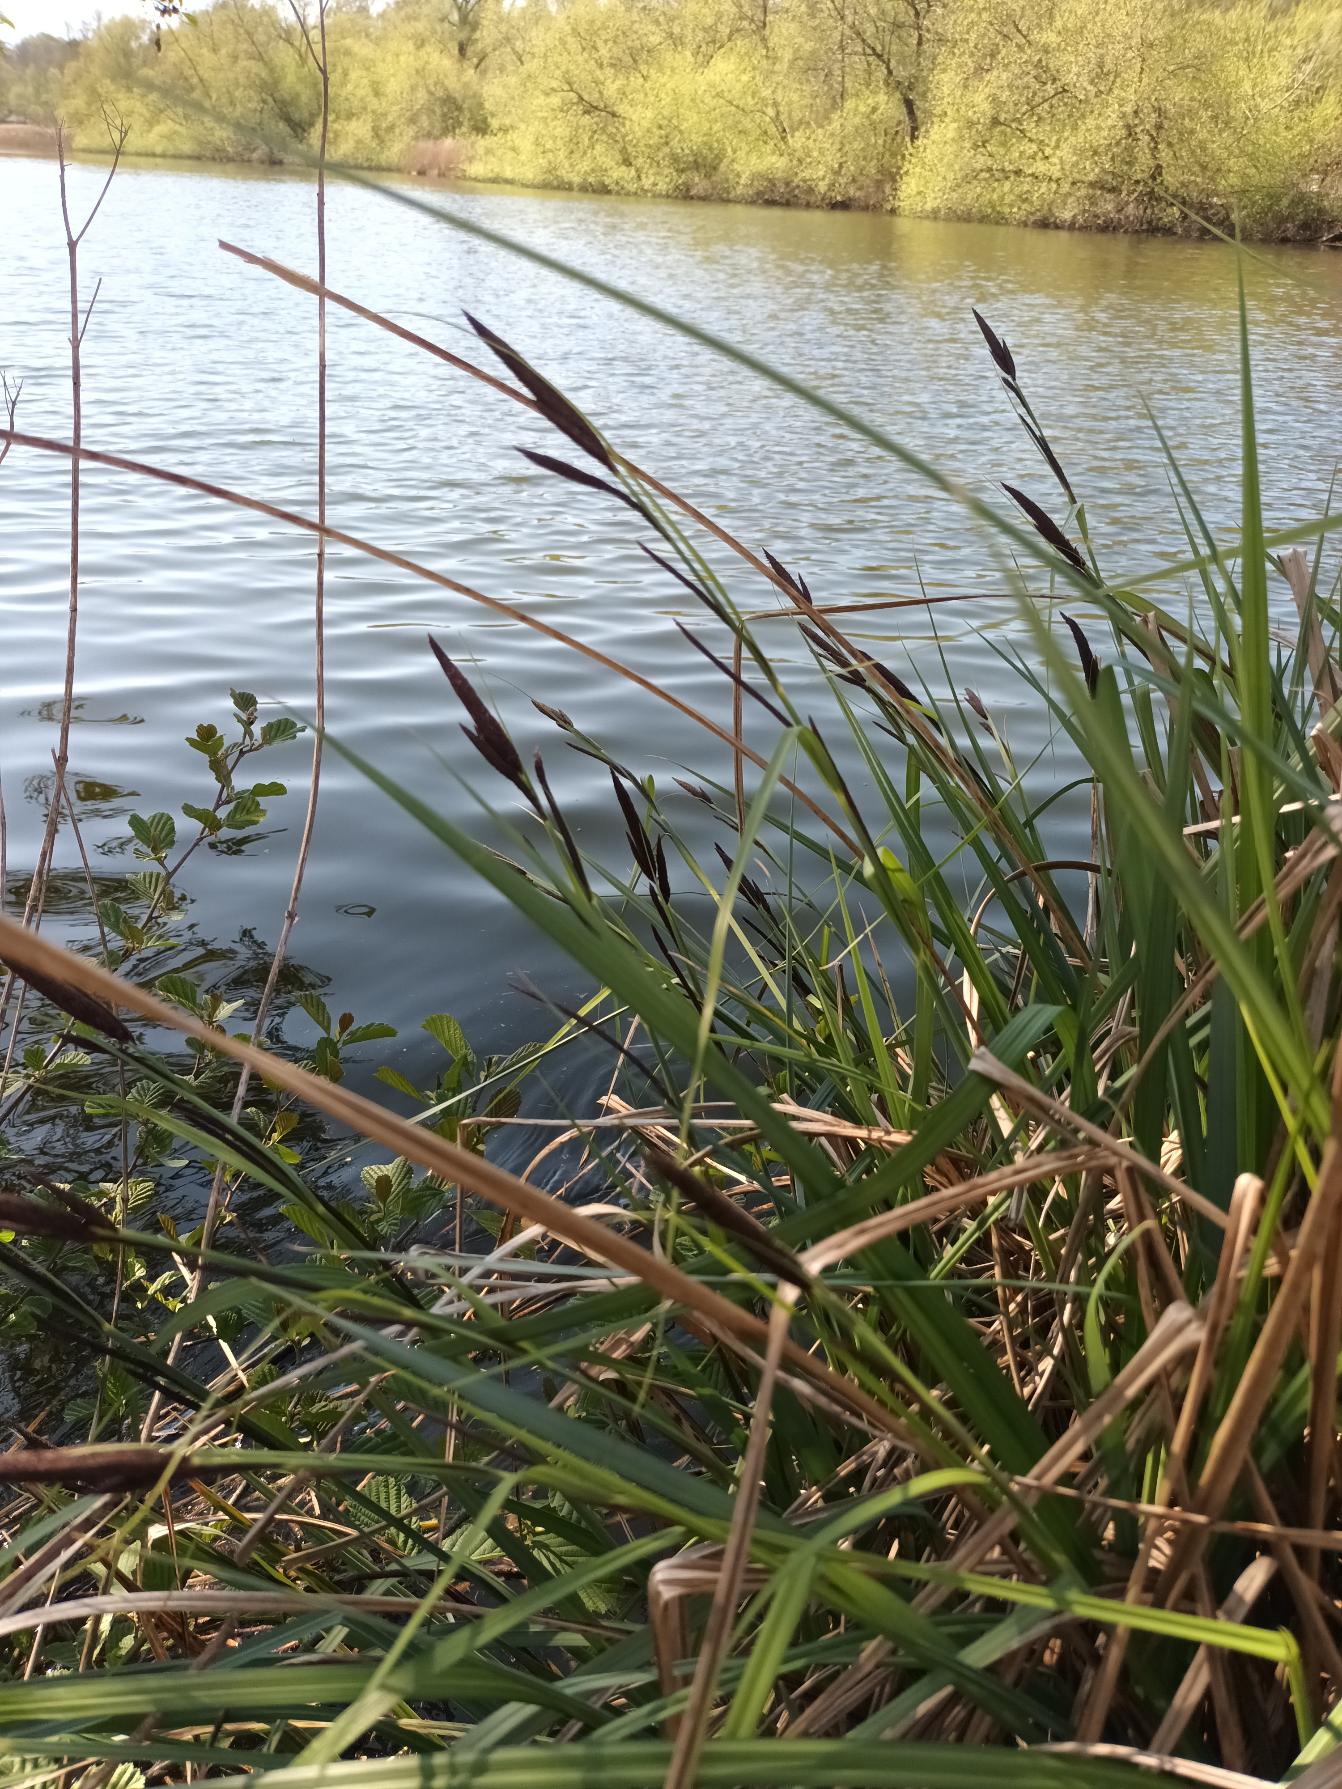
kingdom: Plantae
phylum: Tracheophyta
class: Liliopsida
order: Poales
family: Cyperaceae
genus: Carex
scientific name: Carex acuta
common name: Nikkende star
